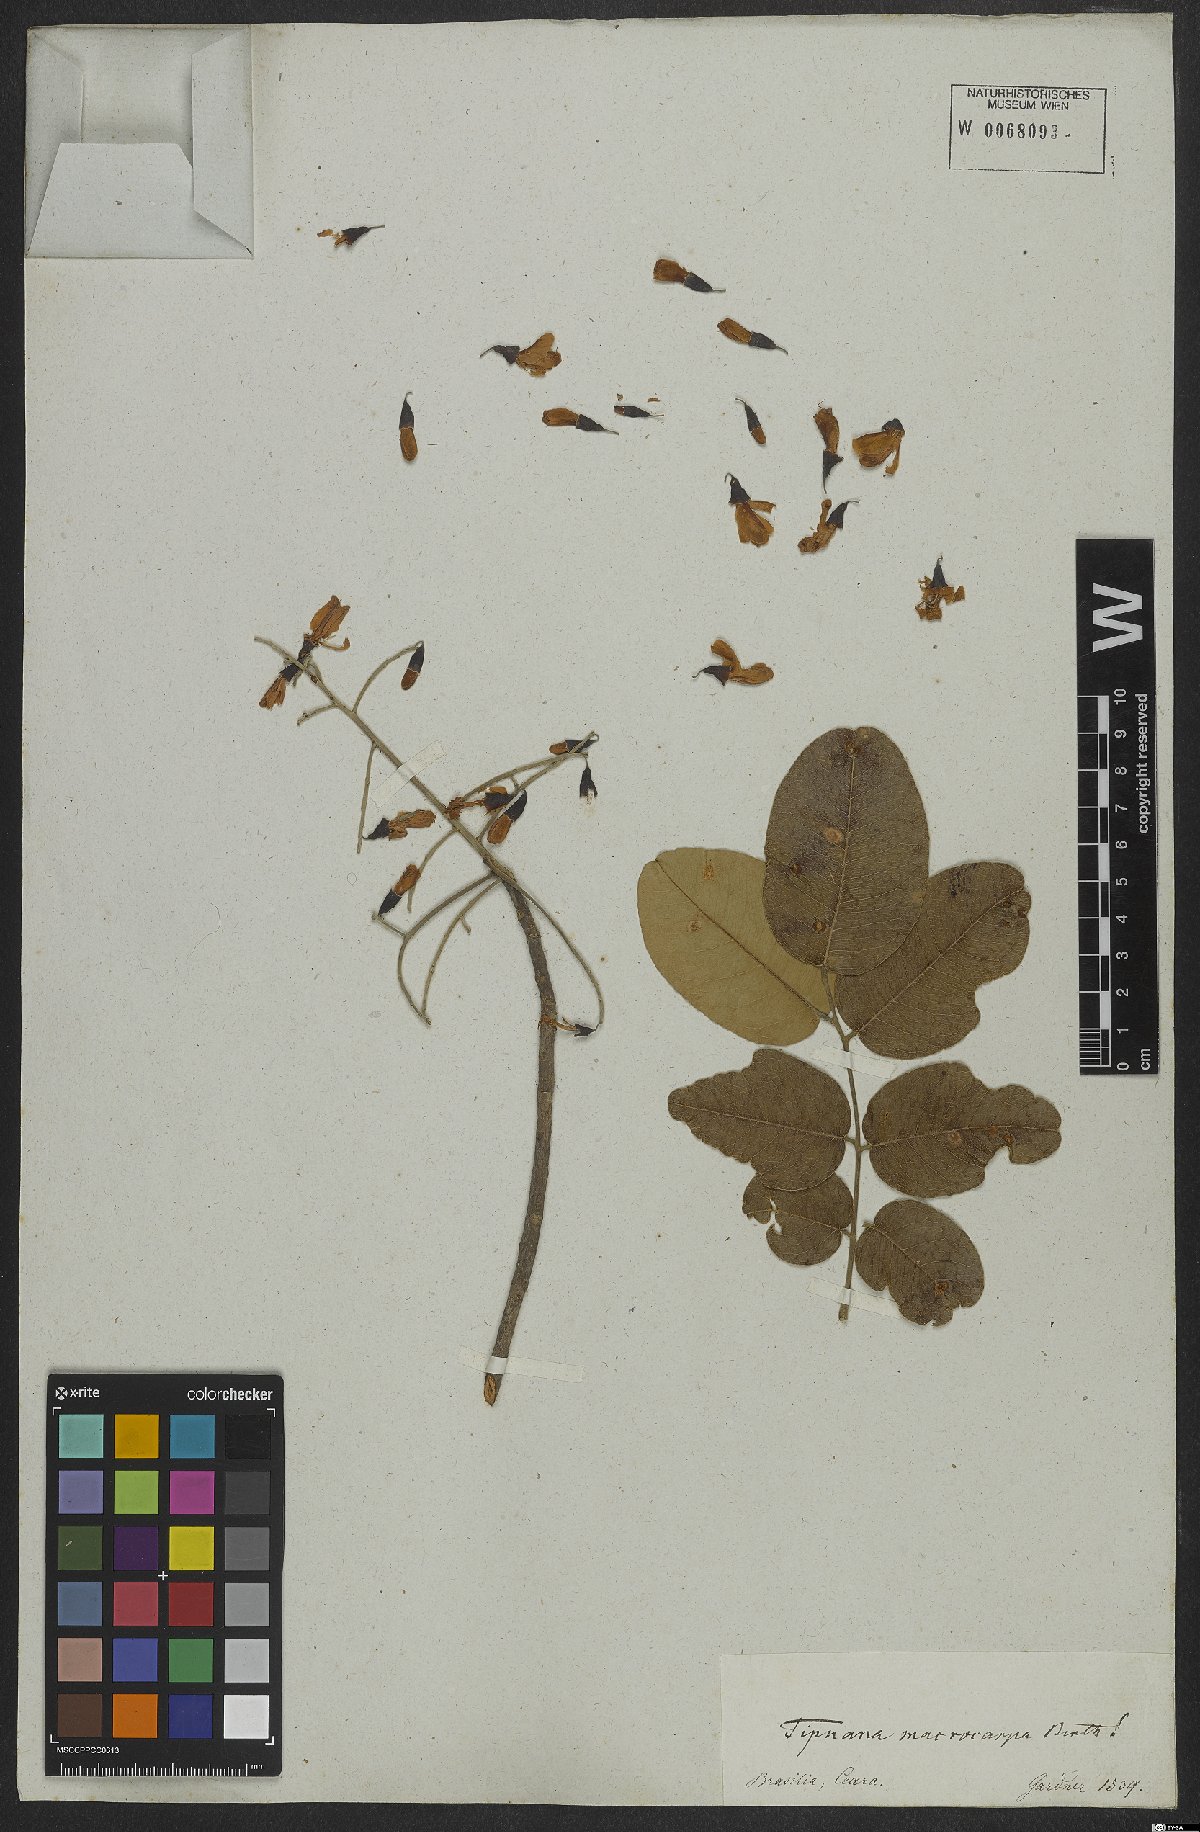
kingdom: Plantae
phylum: Tracheophyta
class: Magnoliopsida
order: Fabales
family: Fabaceae
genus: Vatairea
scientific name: Vatairea macrocarpa
